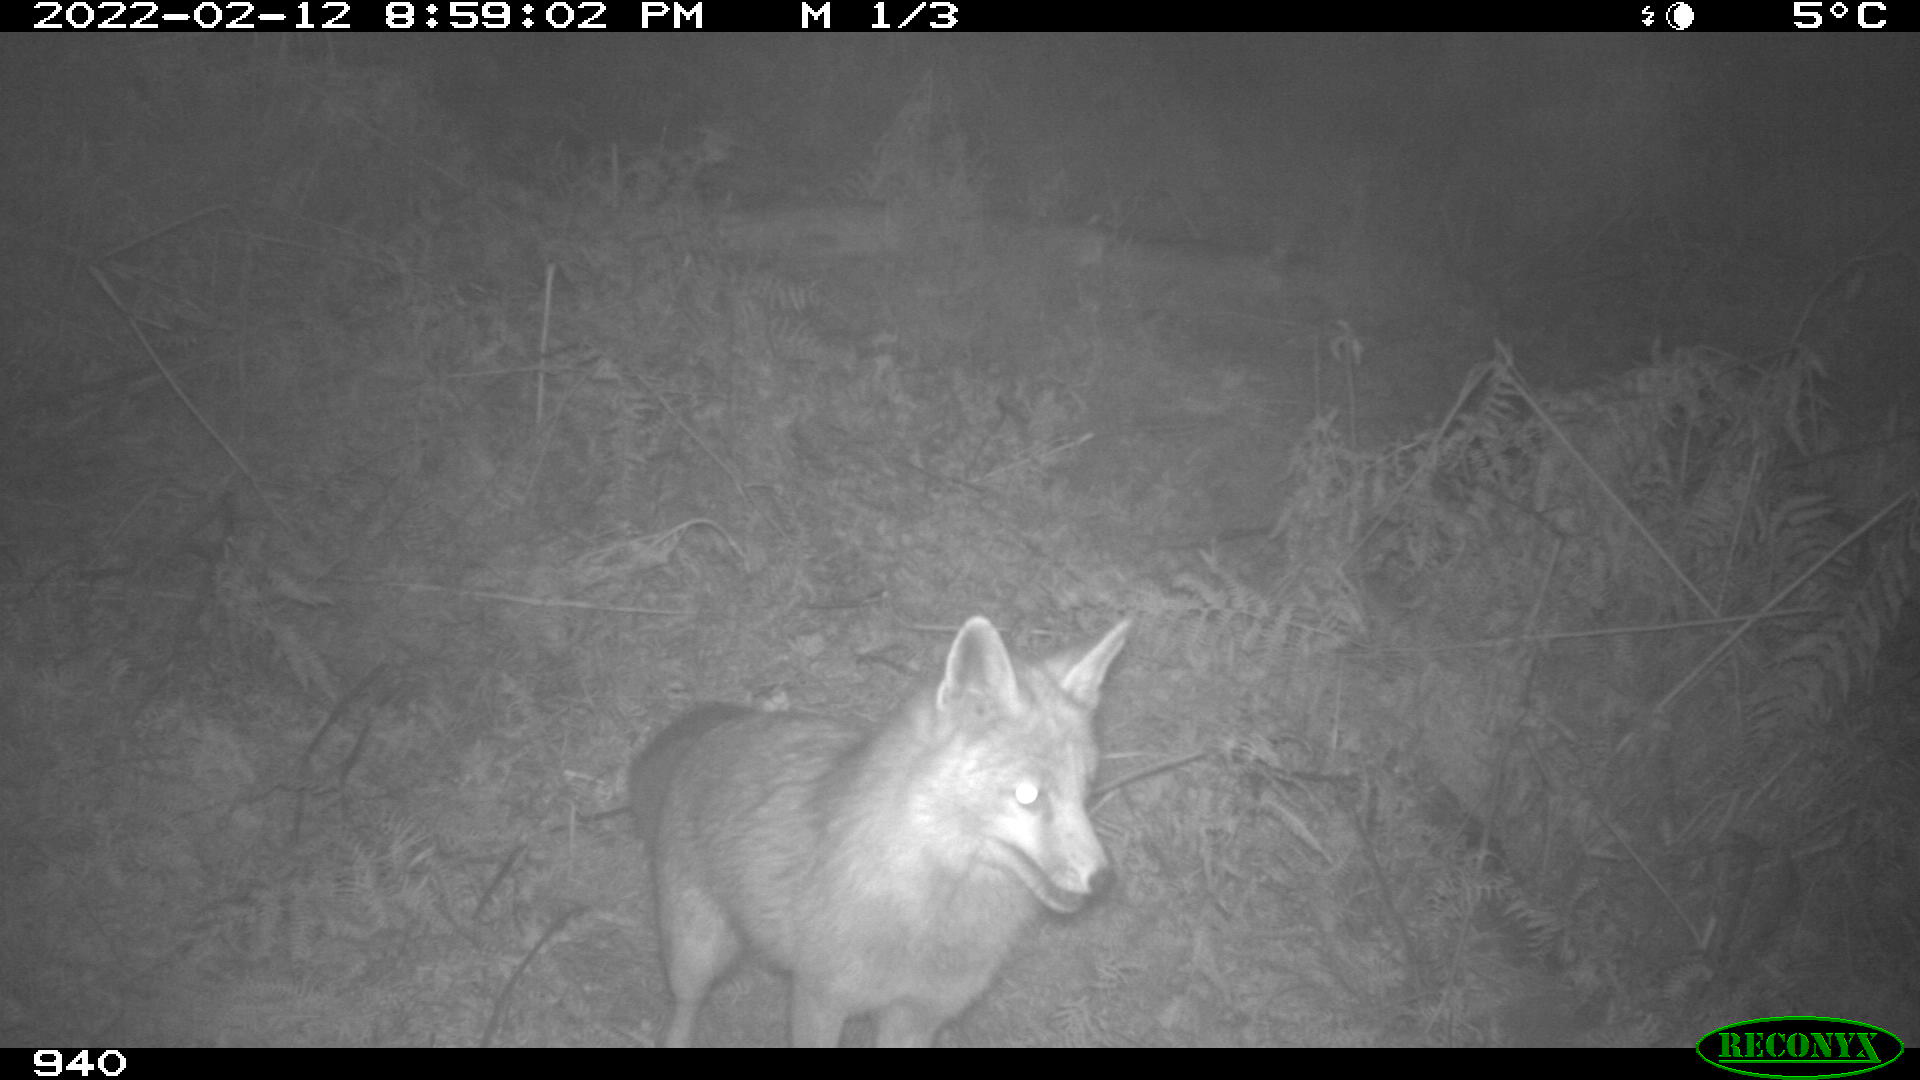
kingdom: Animalia
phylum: Chordata
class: Mammalia
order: Carnivora
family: Canidae
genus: Vulpes
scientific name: Vulpes vulpes
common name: Red fox
